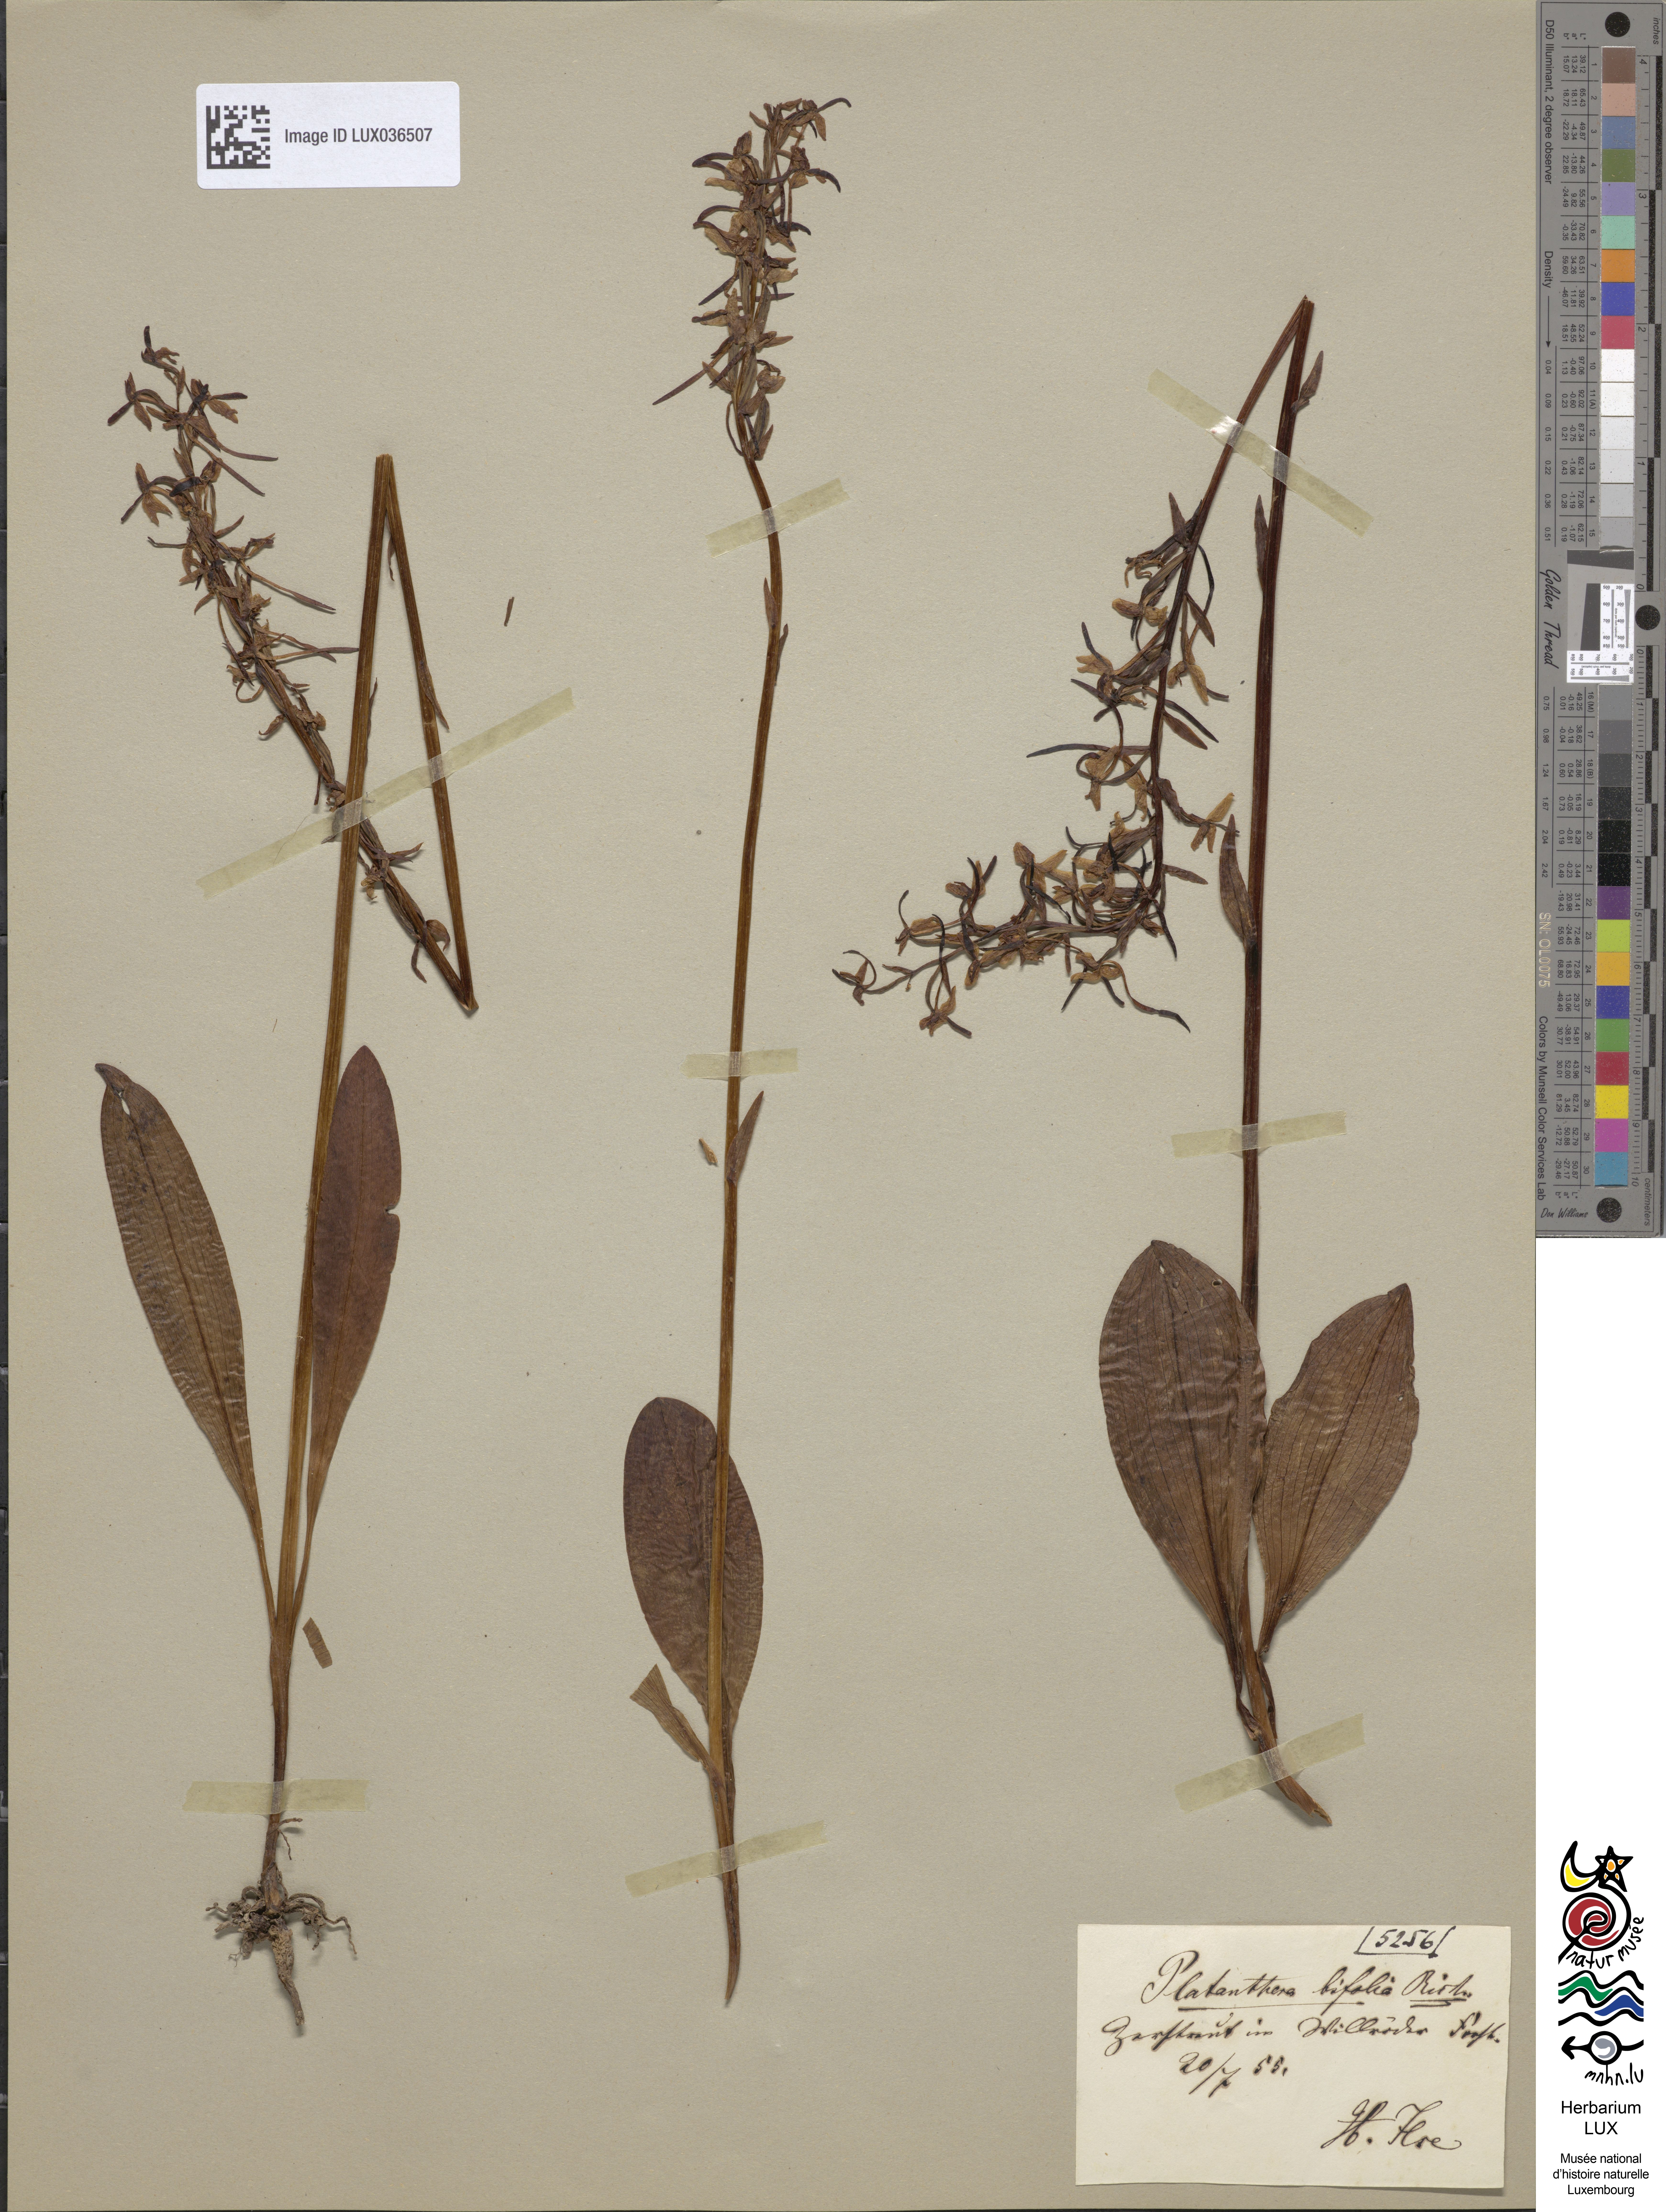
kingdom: Plantae
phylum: Tracheophyta
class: Liliopsida
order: Asparagales
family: Orchidaceae
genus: Platanthera
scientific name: Platanthera bifolia
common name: Lesser butterfly-orchid
